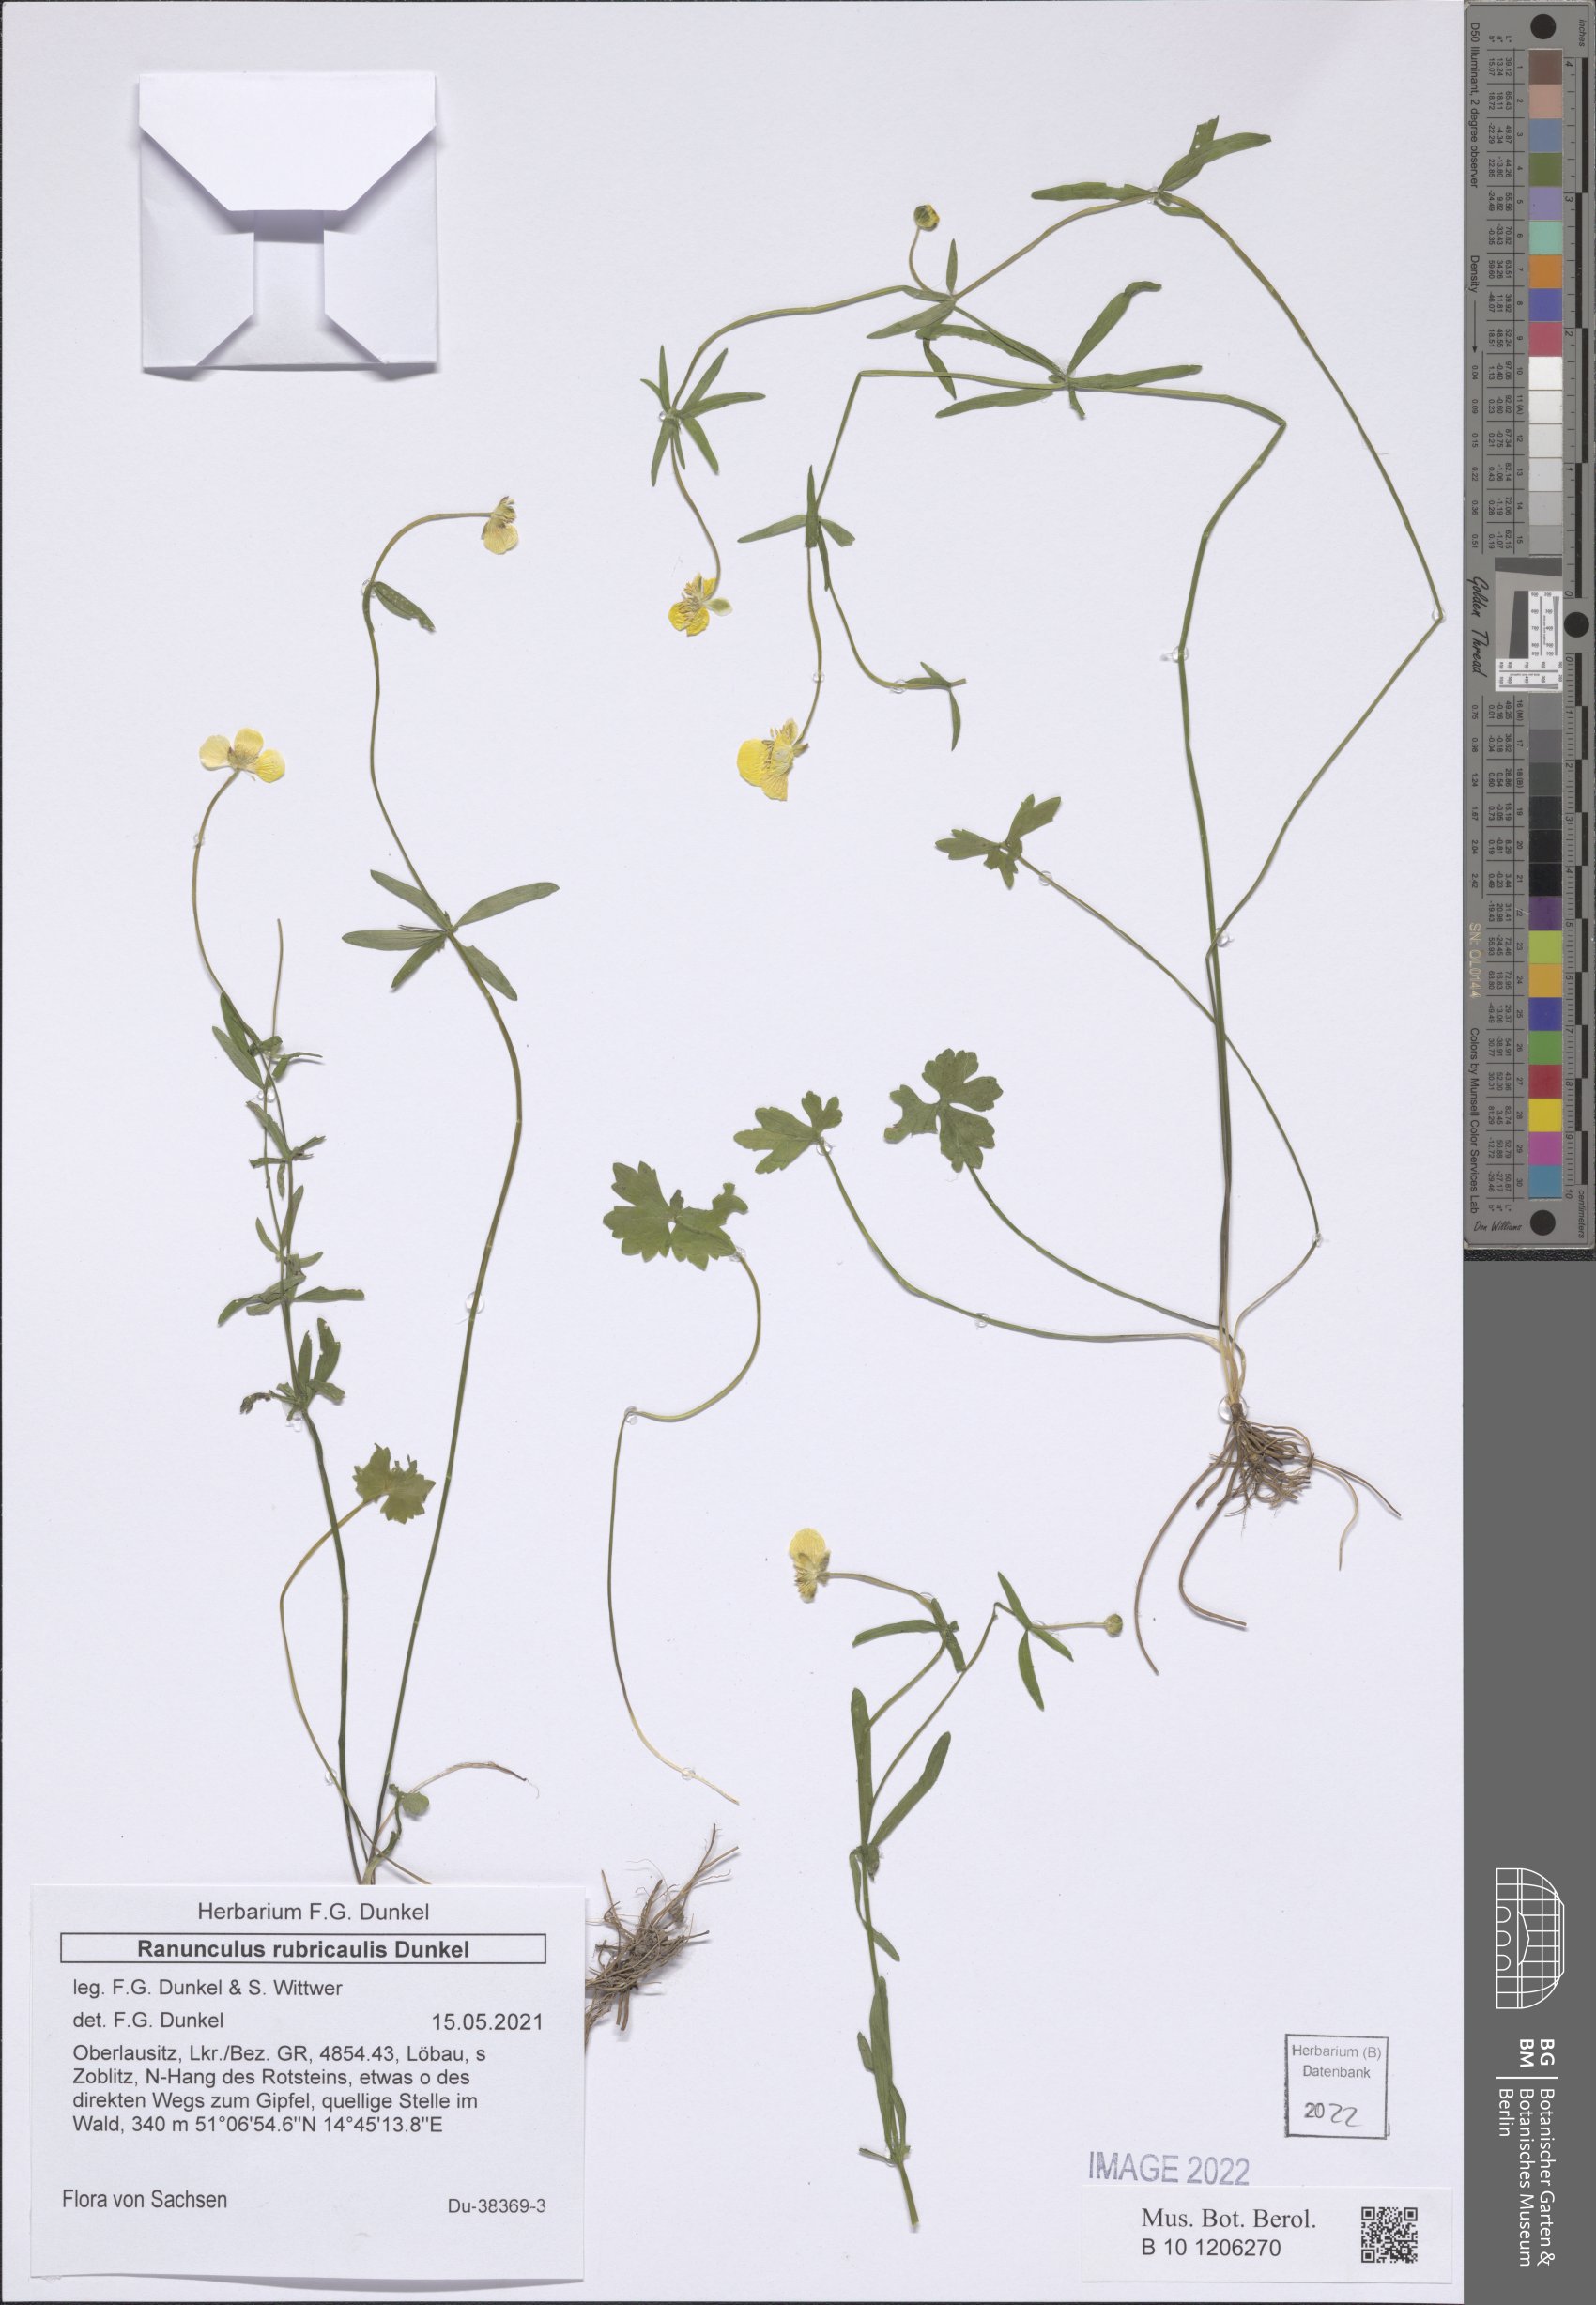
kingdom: Plantae
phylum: Tracheophyta
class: Magnoliopsida
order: Ranunculales
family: Ranunculaceae
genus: Ranunculus
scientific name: Ranunculus rubricaulis
